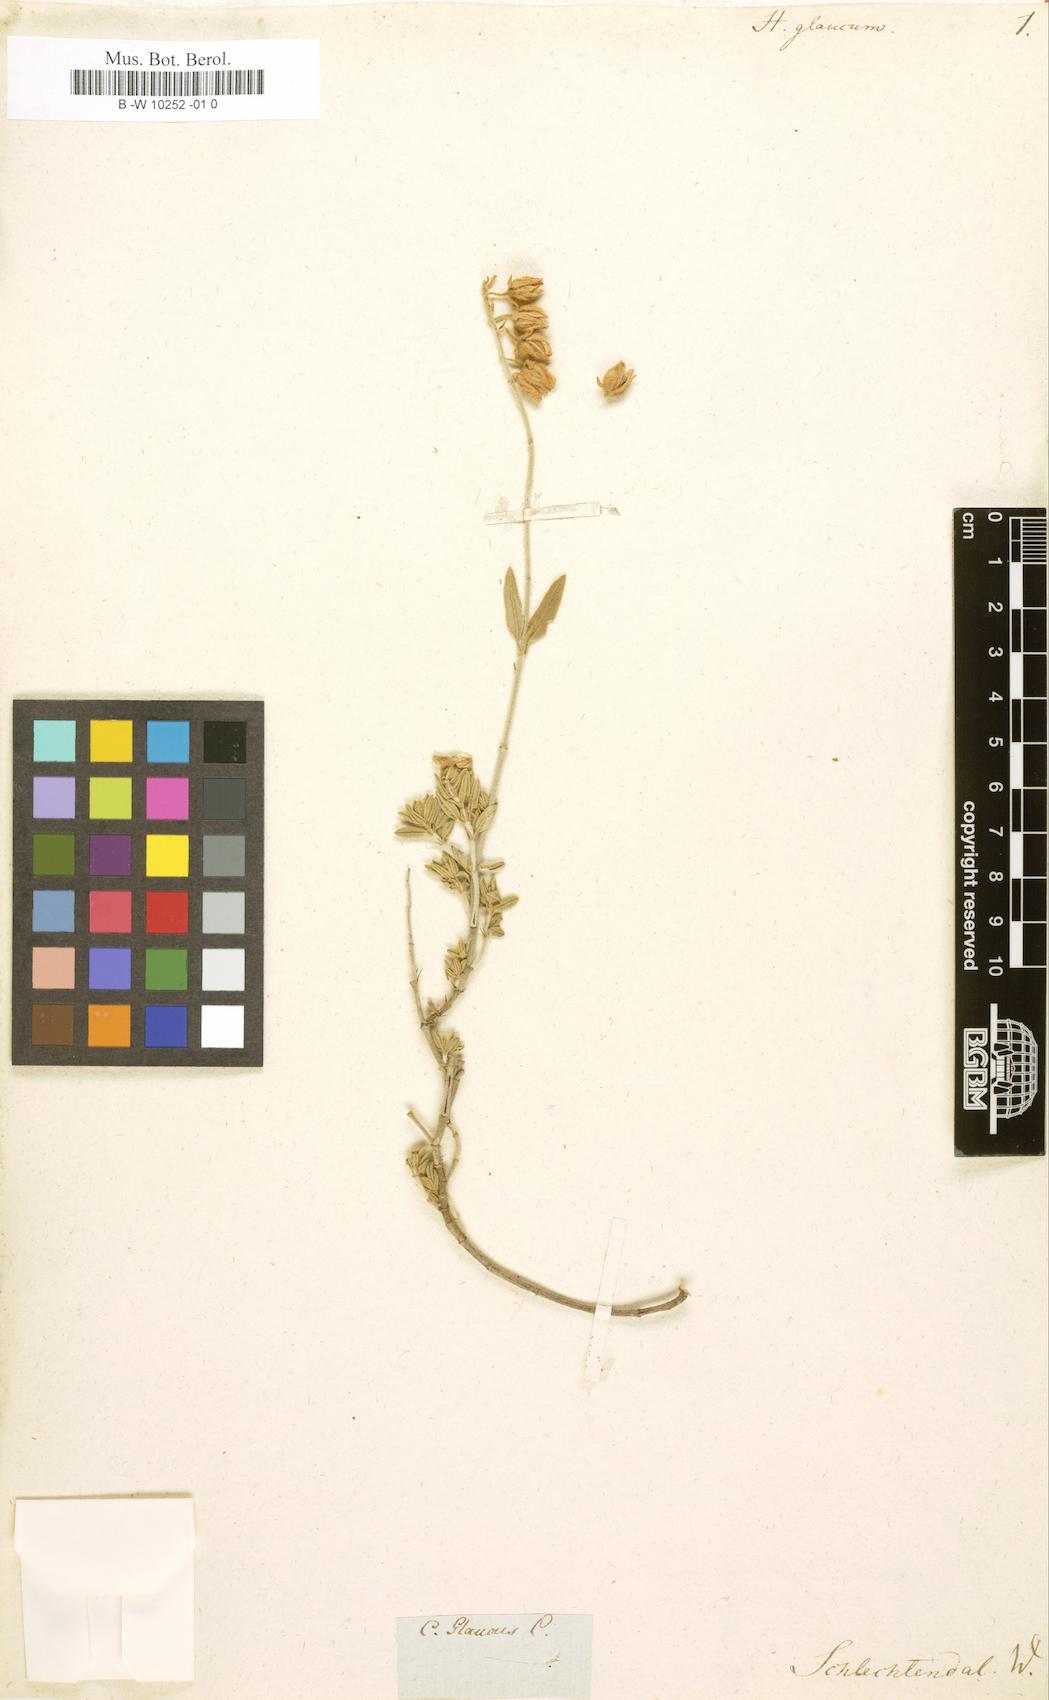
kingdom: Plantae
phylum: Tracheophyta
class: Magnoliopsida
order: Malvales
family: Cistaceae
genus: Helianthemum
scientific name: Helianthemum croceum
